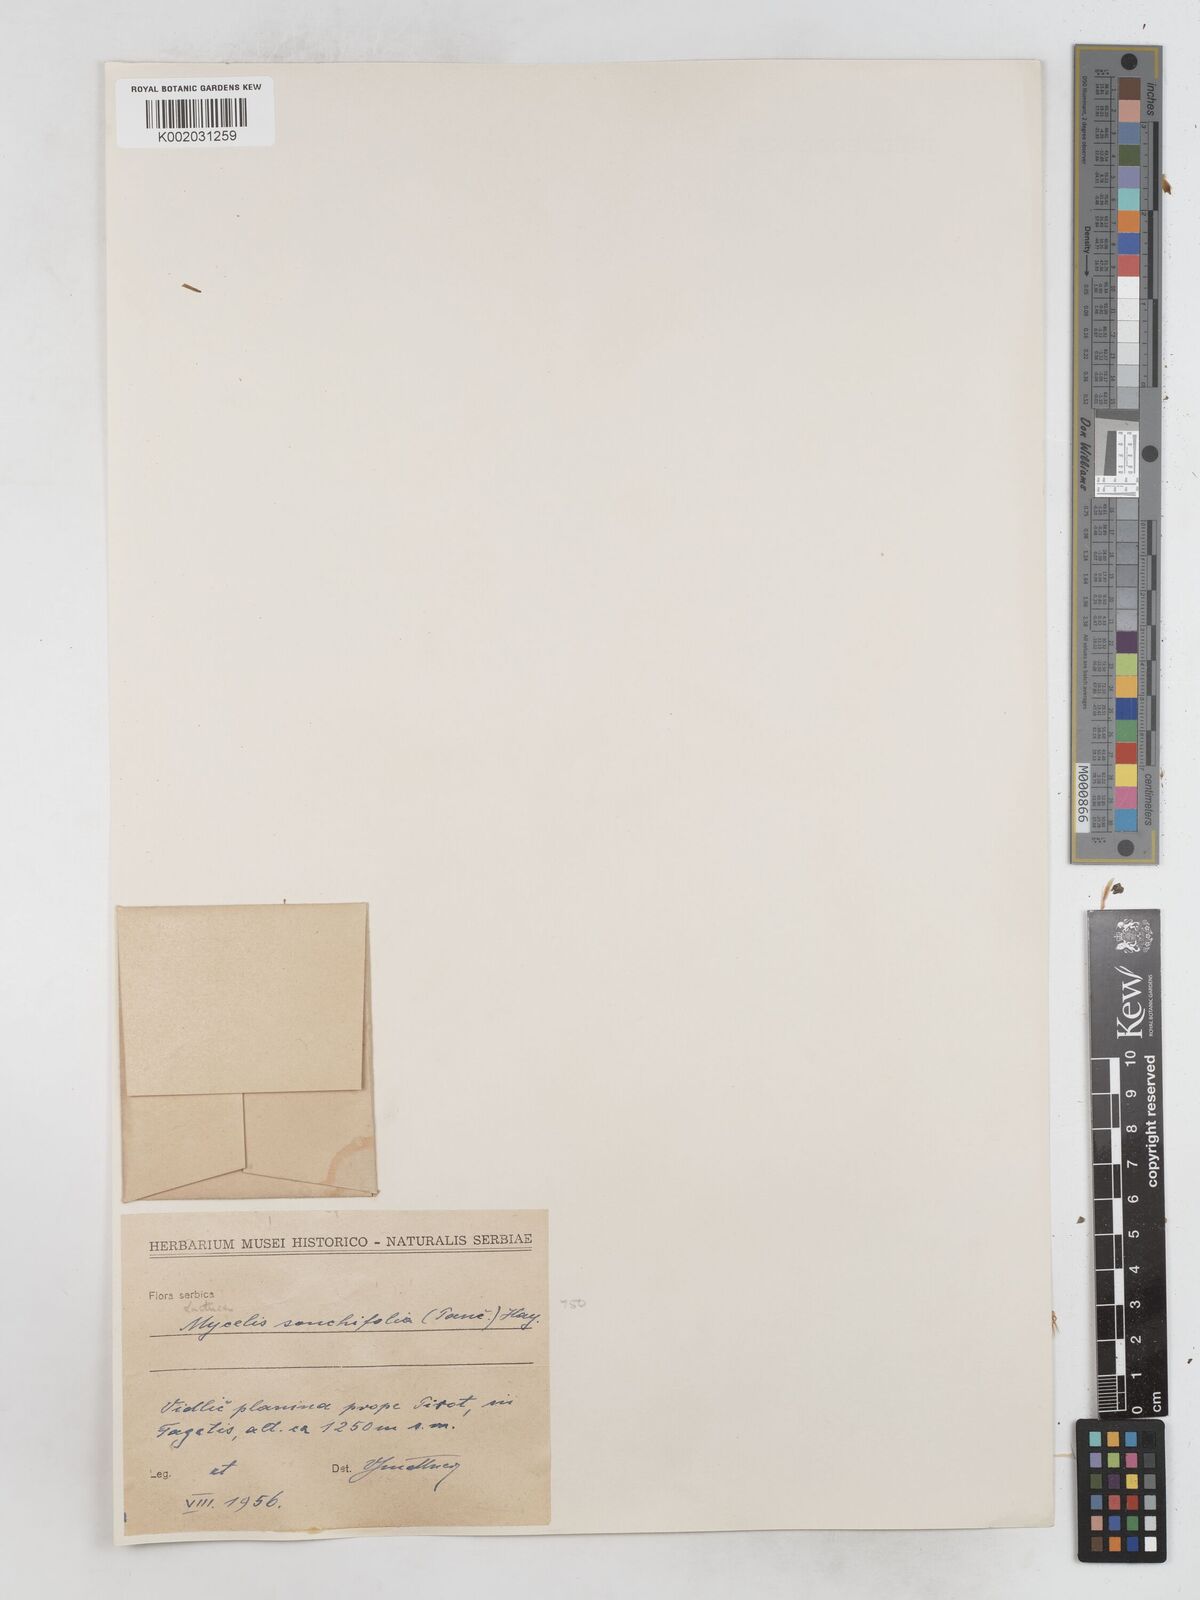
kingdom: Plantae
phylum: Tracheophyta
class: Magnoliopsida
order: Asterales
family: Asteraceae
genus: Lactuca
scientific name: Lactuca sonchifolia
